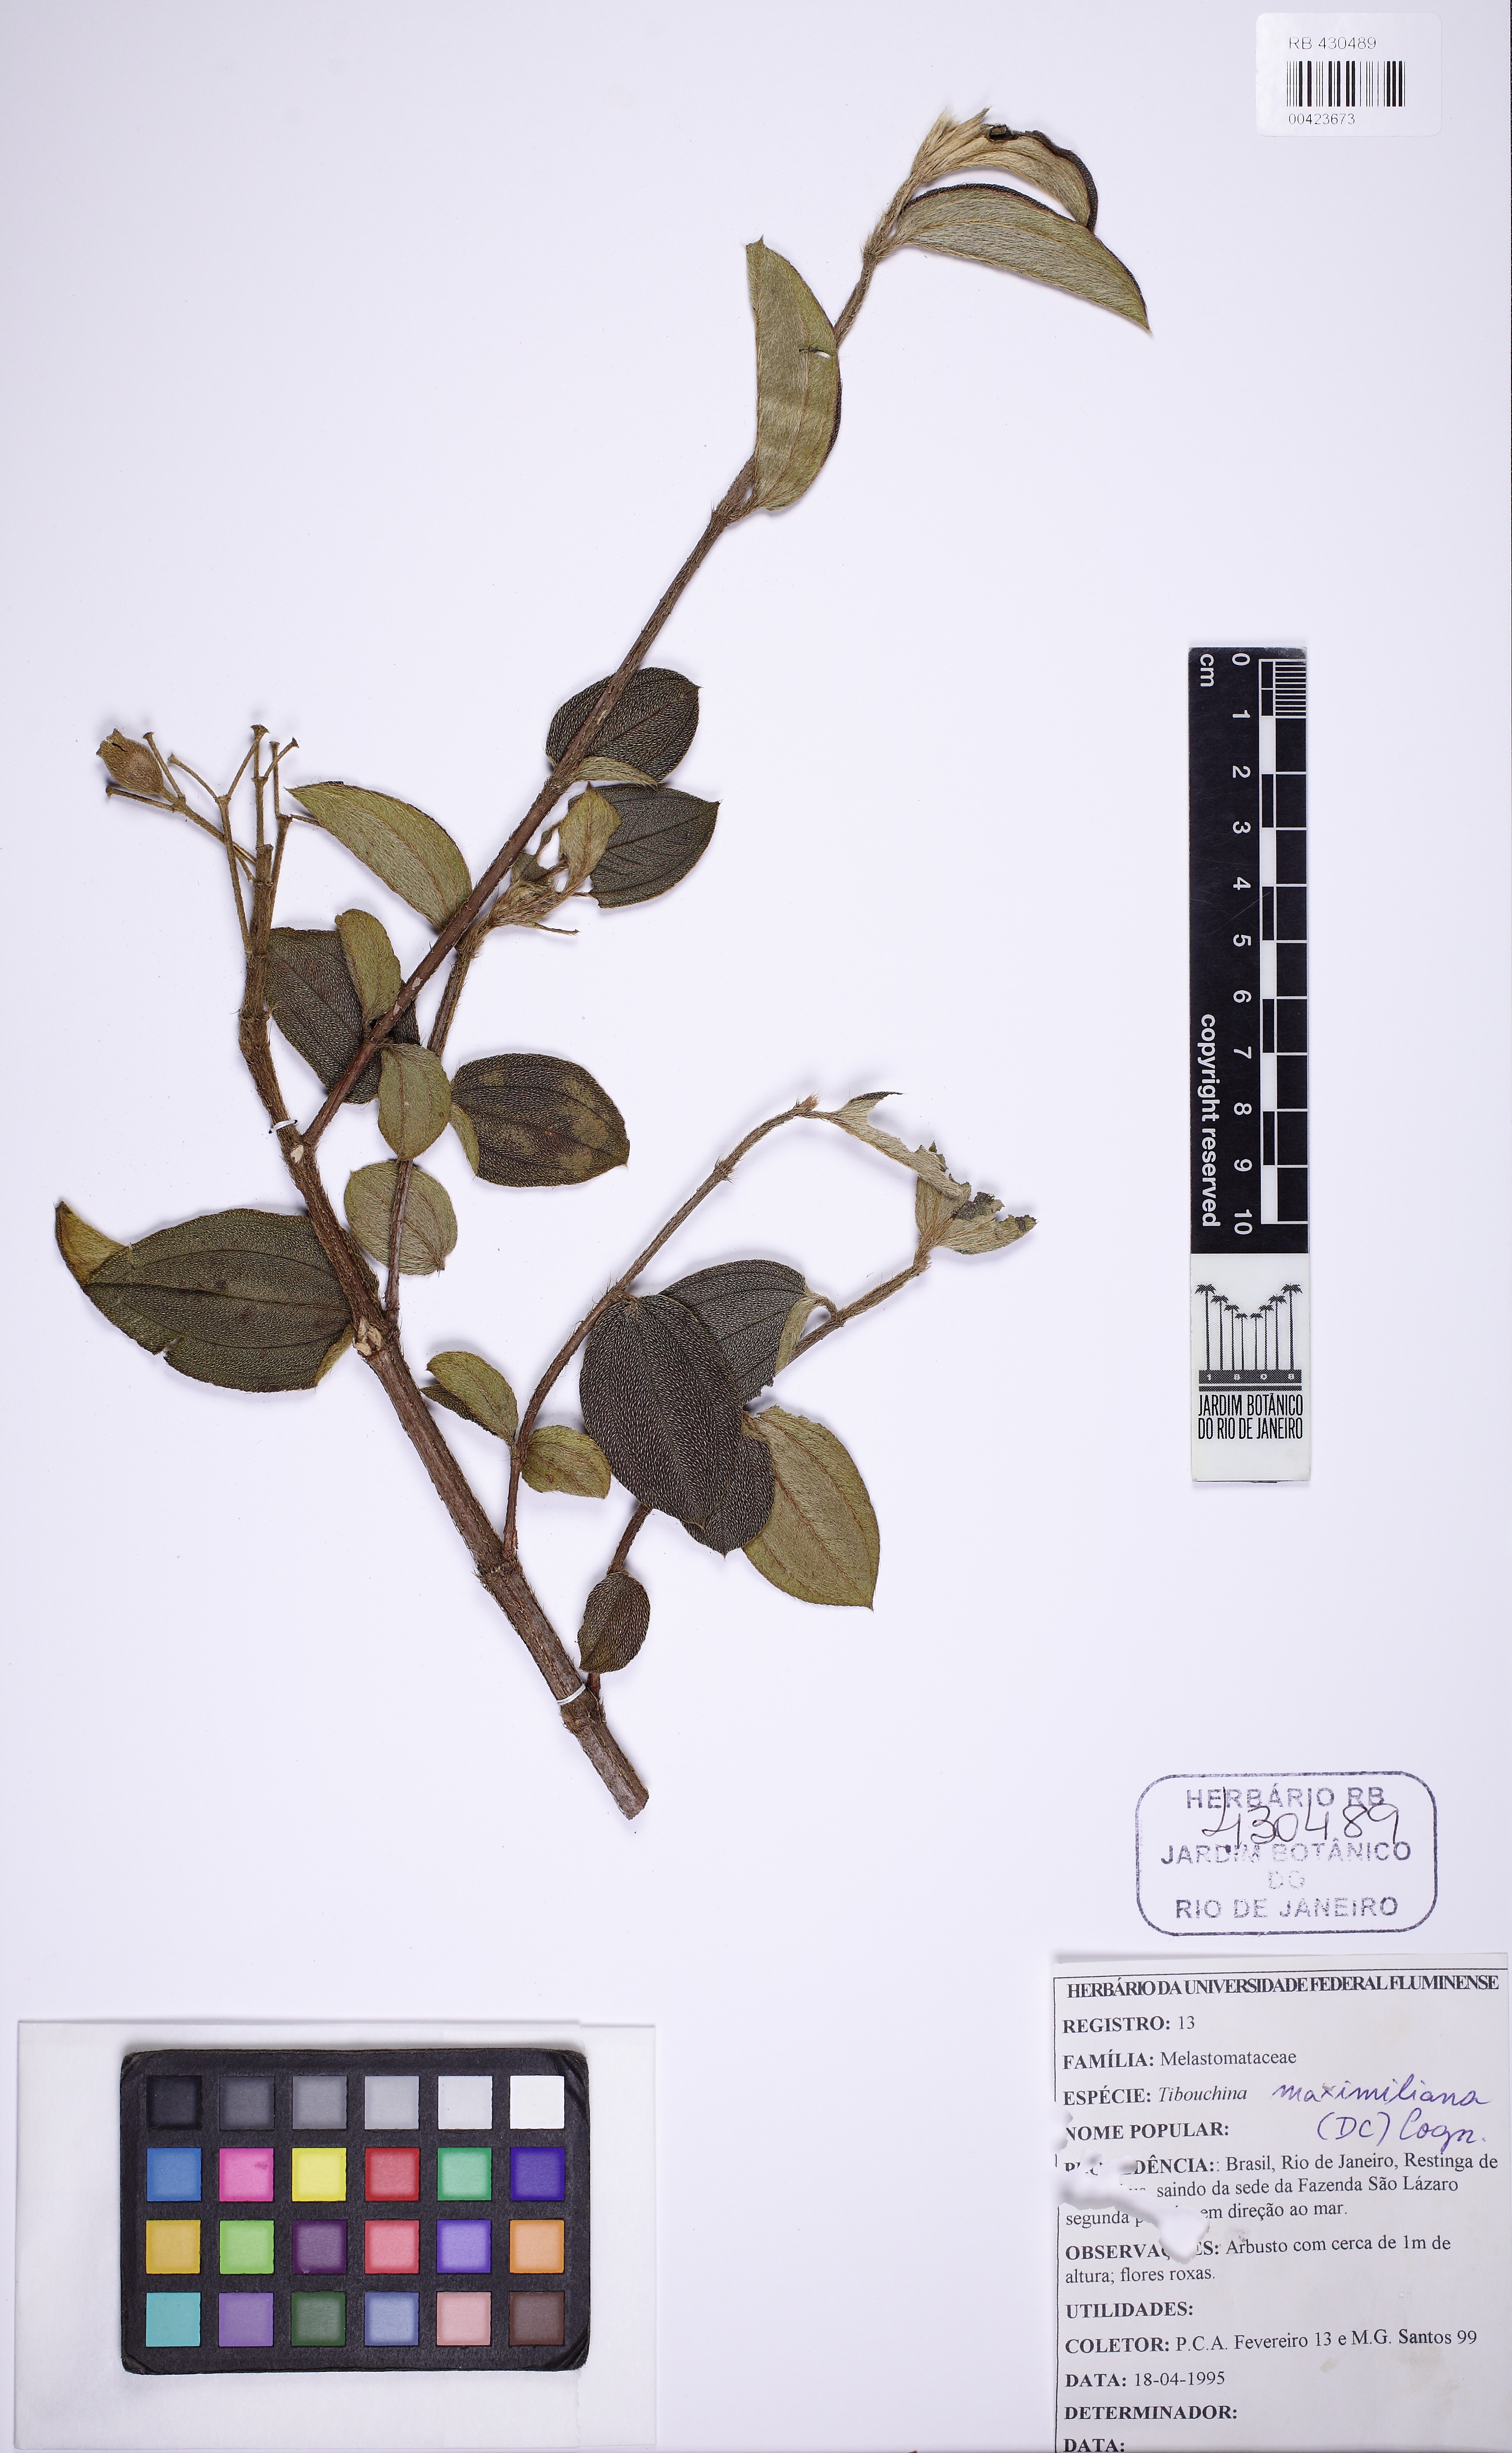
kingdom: Plantae
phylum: Tracheophyta
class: Magnoliopsida
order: Myrtales
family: Melastomataceae
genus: Pleroma
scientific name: Pleroma maximilianum
